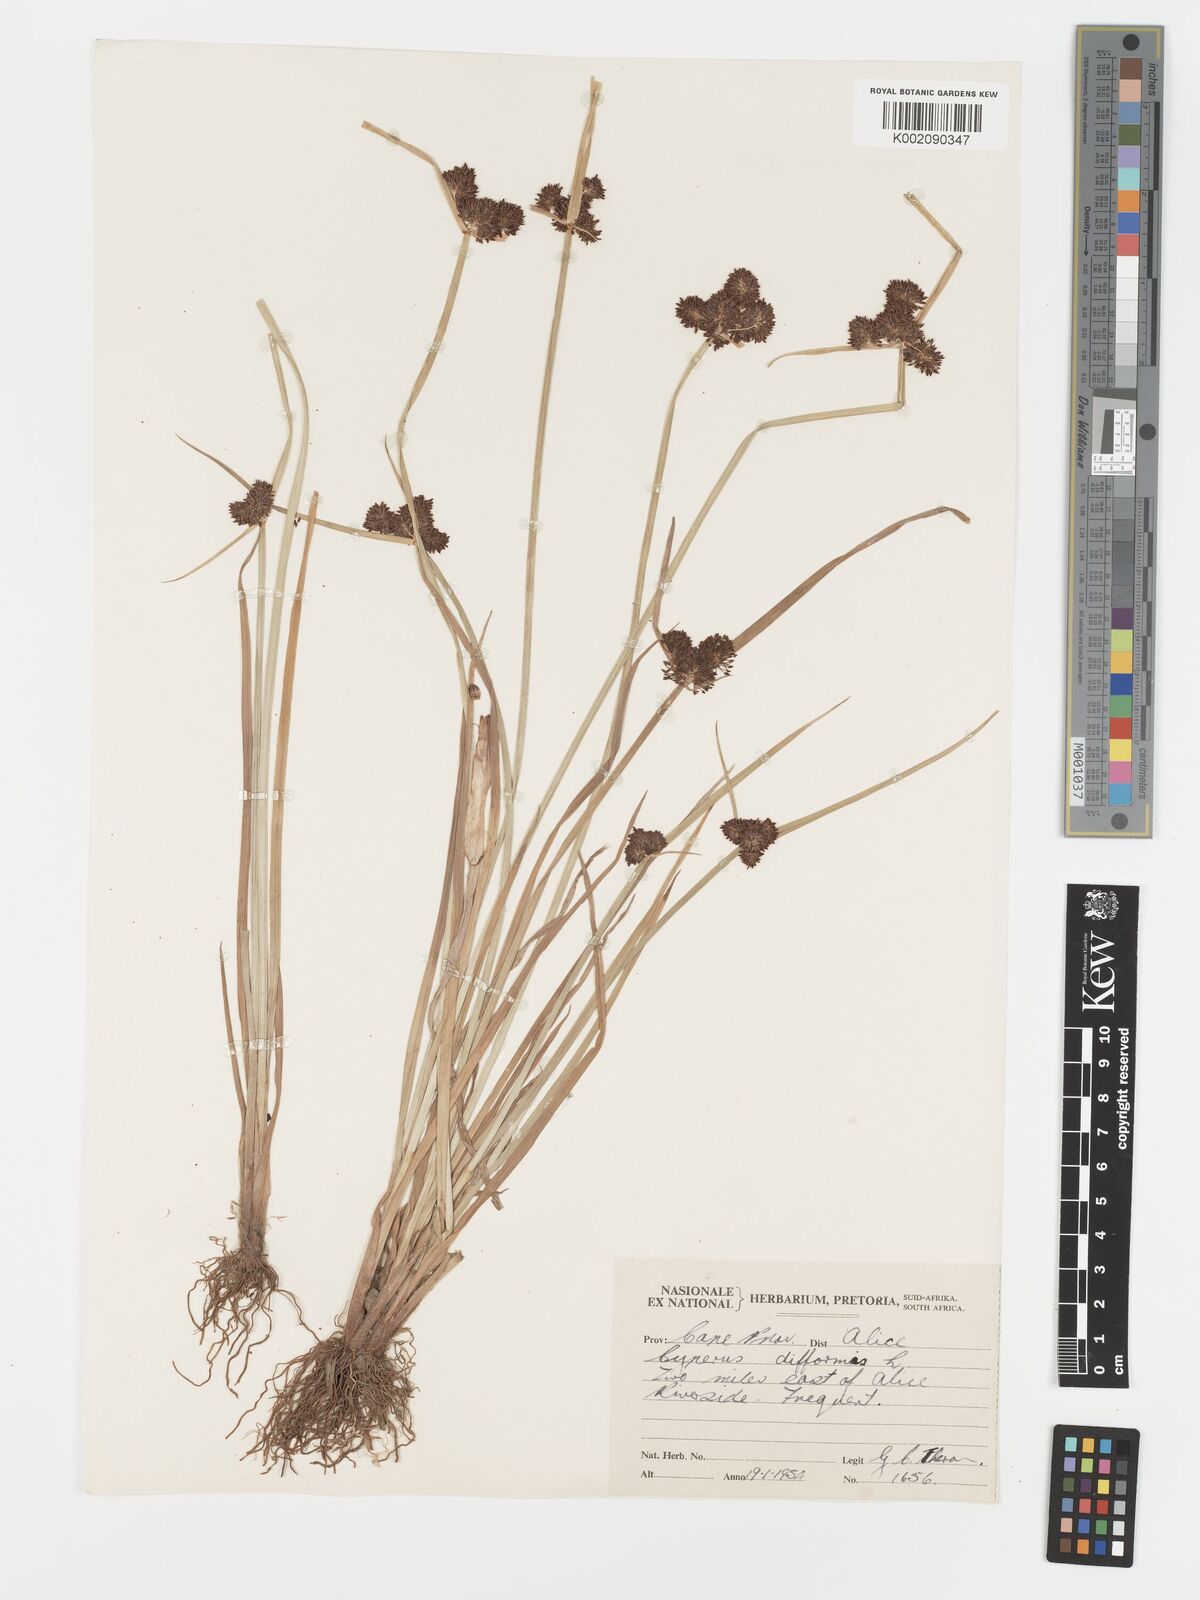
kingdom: Plantae
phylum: Tracheophyta
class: Liliopsida
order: Poales
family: Cyperaceae
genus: Cyperus
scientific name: Cyperus difformis
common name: Variable flatsedge
